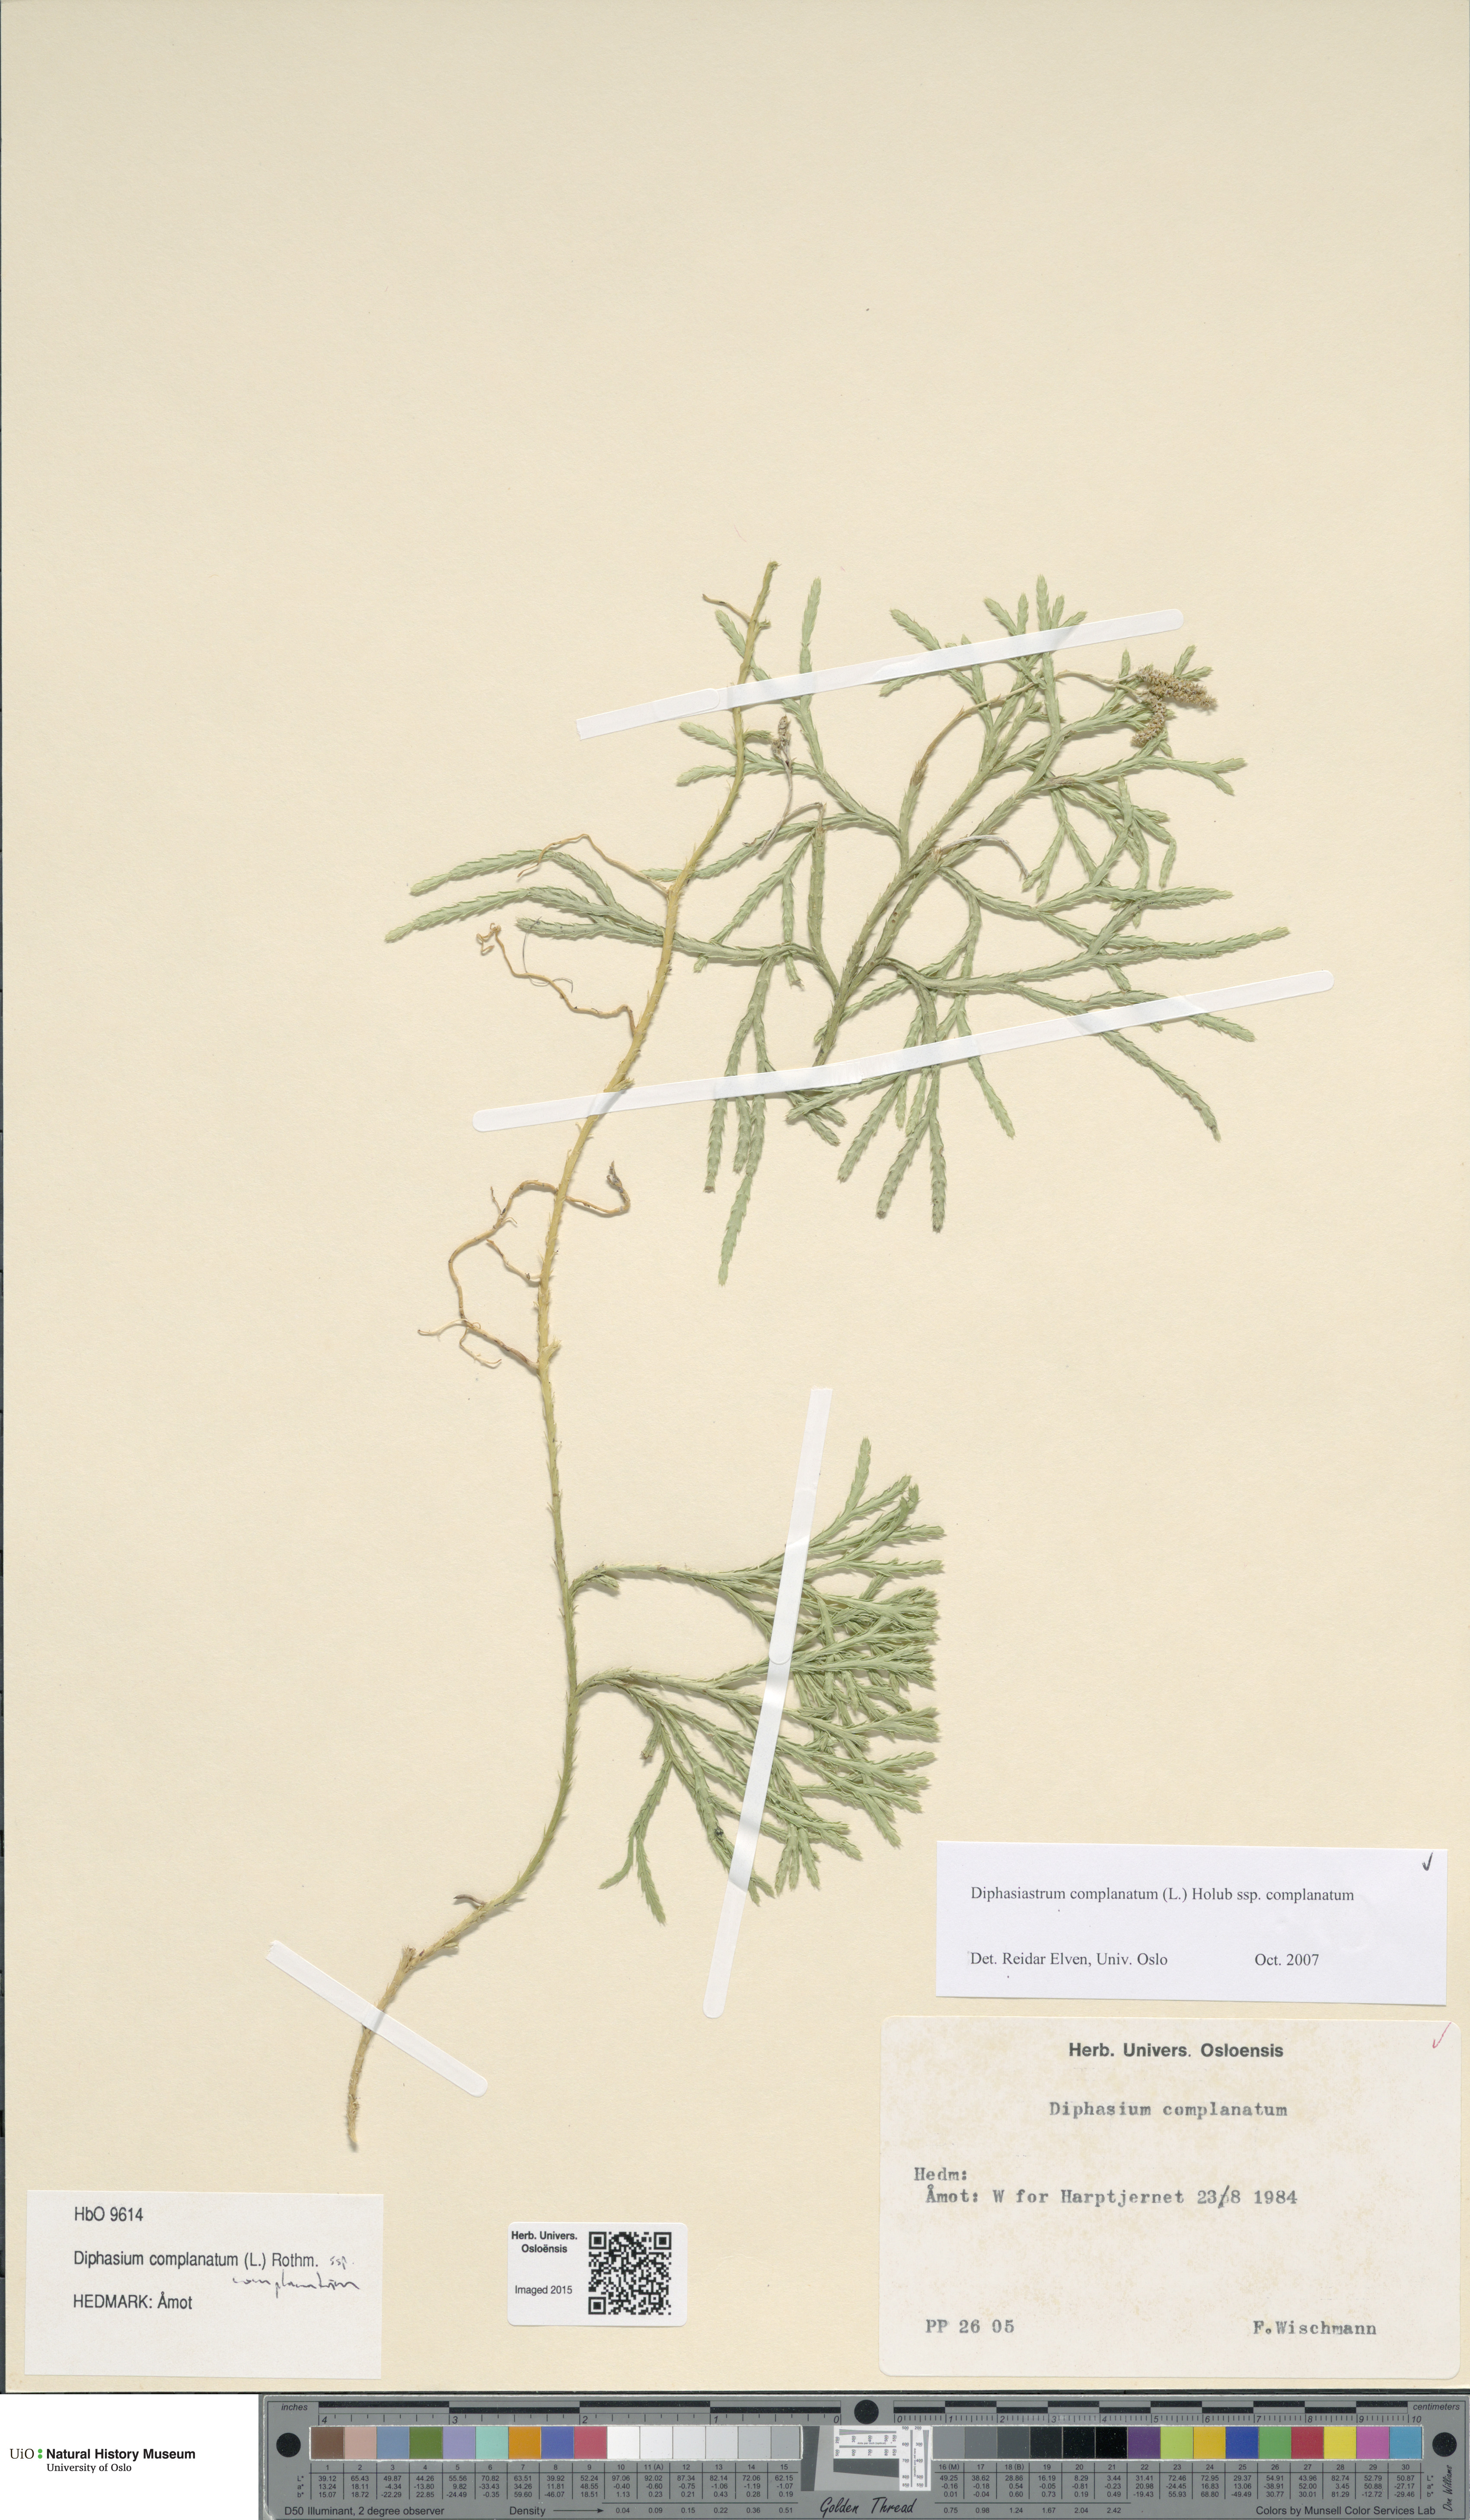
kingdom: Plantae
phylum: Tracheophyta
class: Lycopodiopsida
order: Lycopodiales
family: Lycopodiaceae
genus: Diphasiastrum
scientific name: Diphasiastrum complanatum
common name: Northern running-pine
